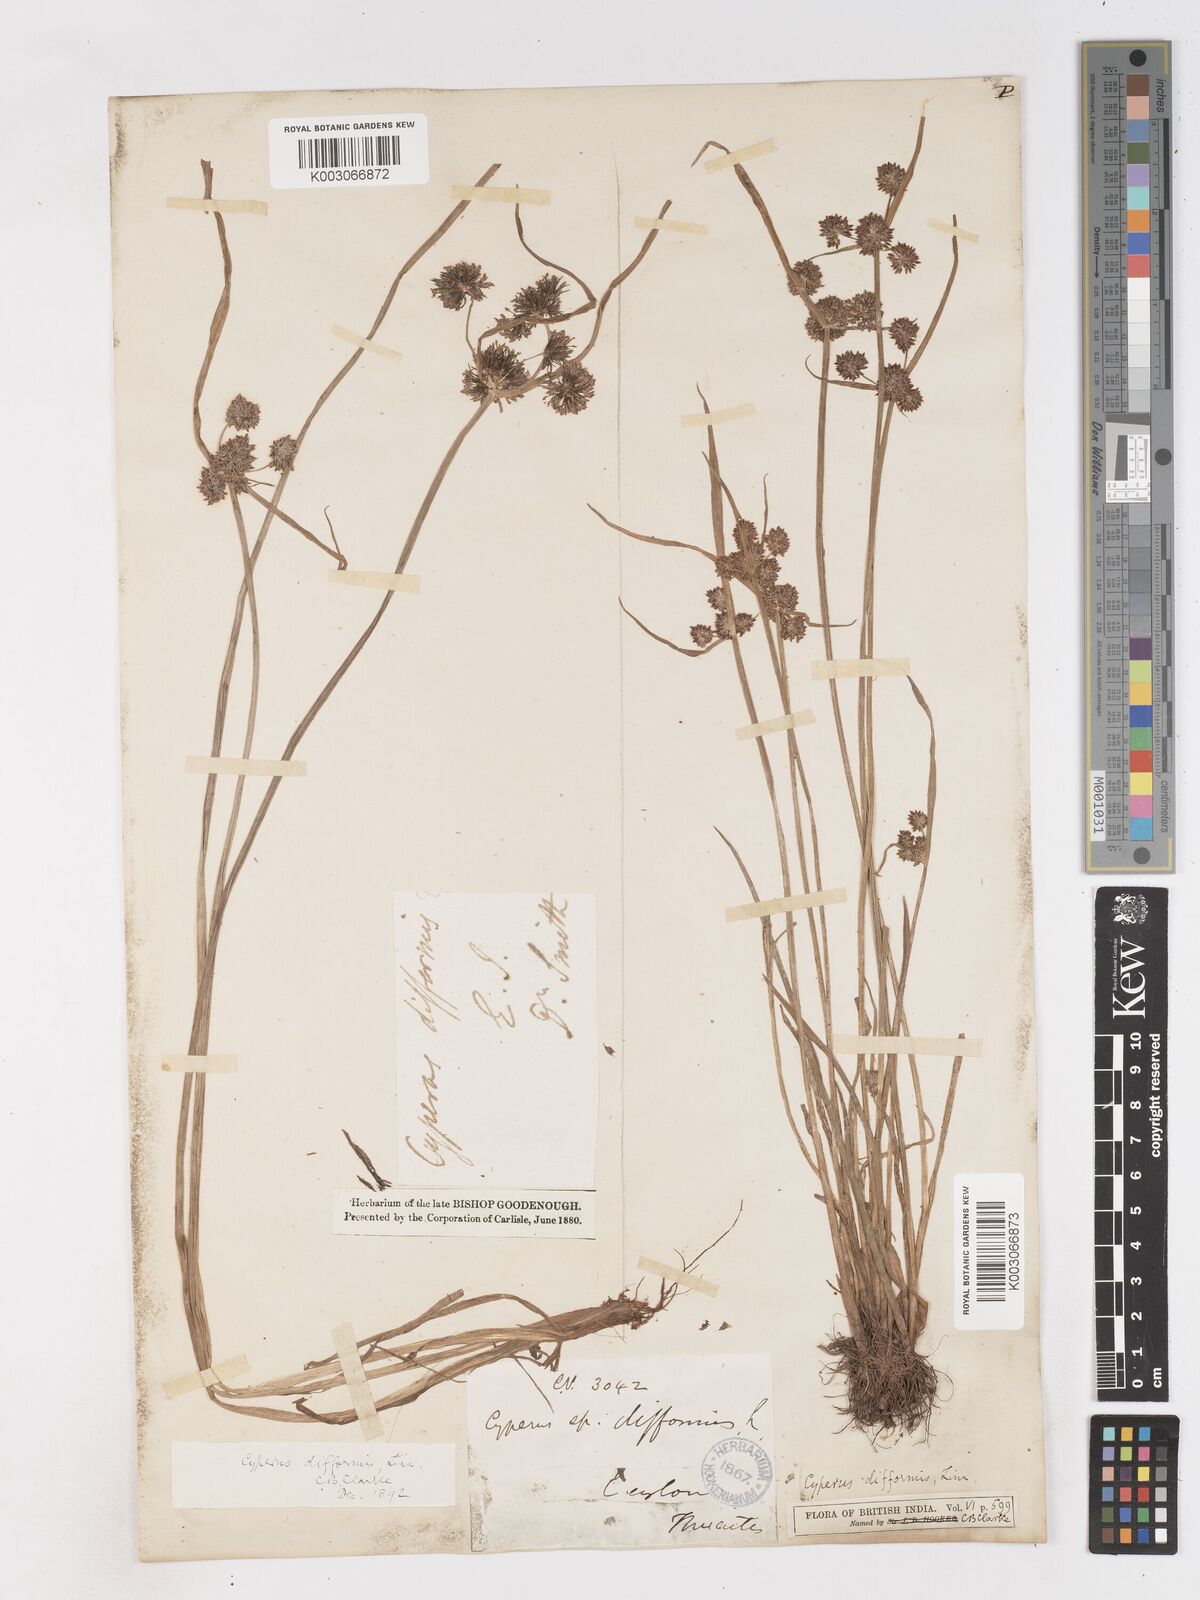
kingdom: Plantae
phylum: Tracheophyta
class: Liliopsida
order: Poales
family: Cyperaceae
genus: Cyperus
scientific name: Cyperus difformis
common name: Variable flatsedge
